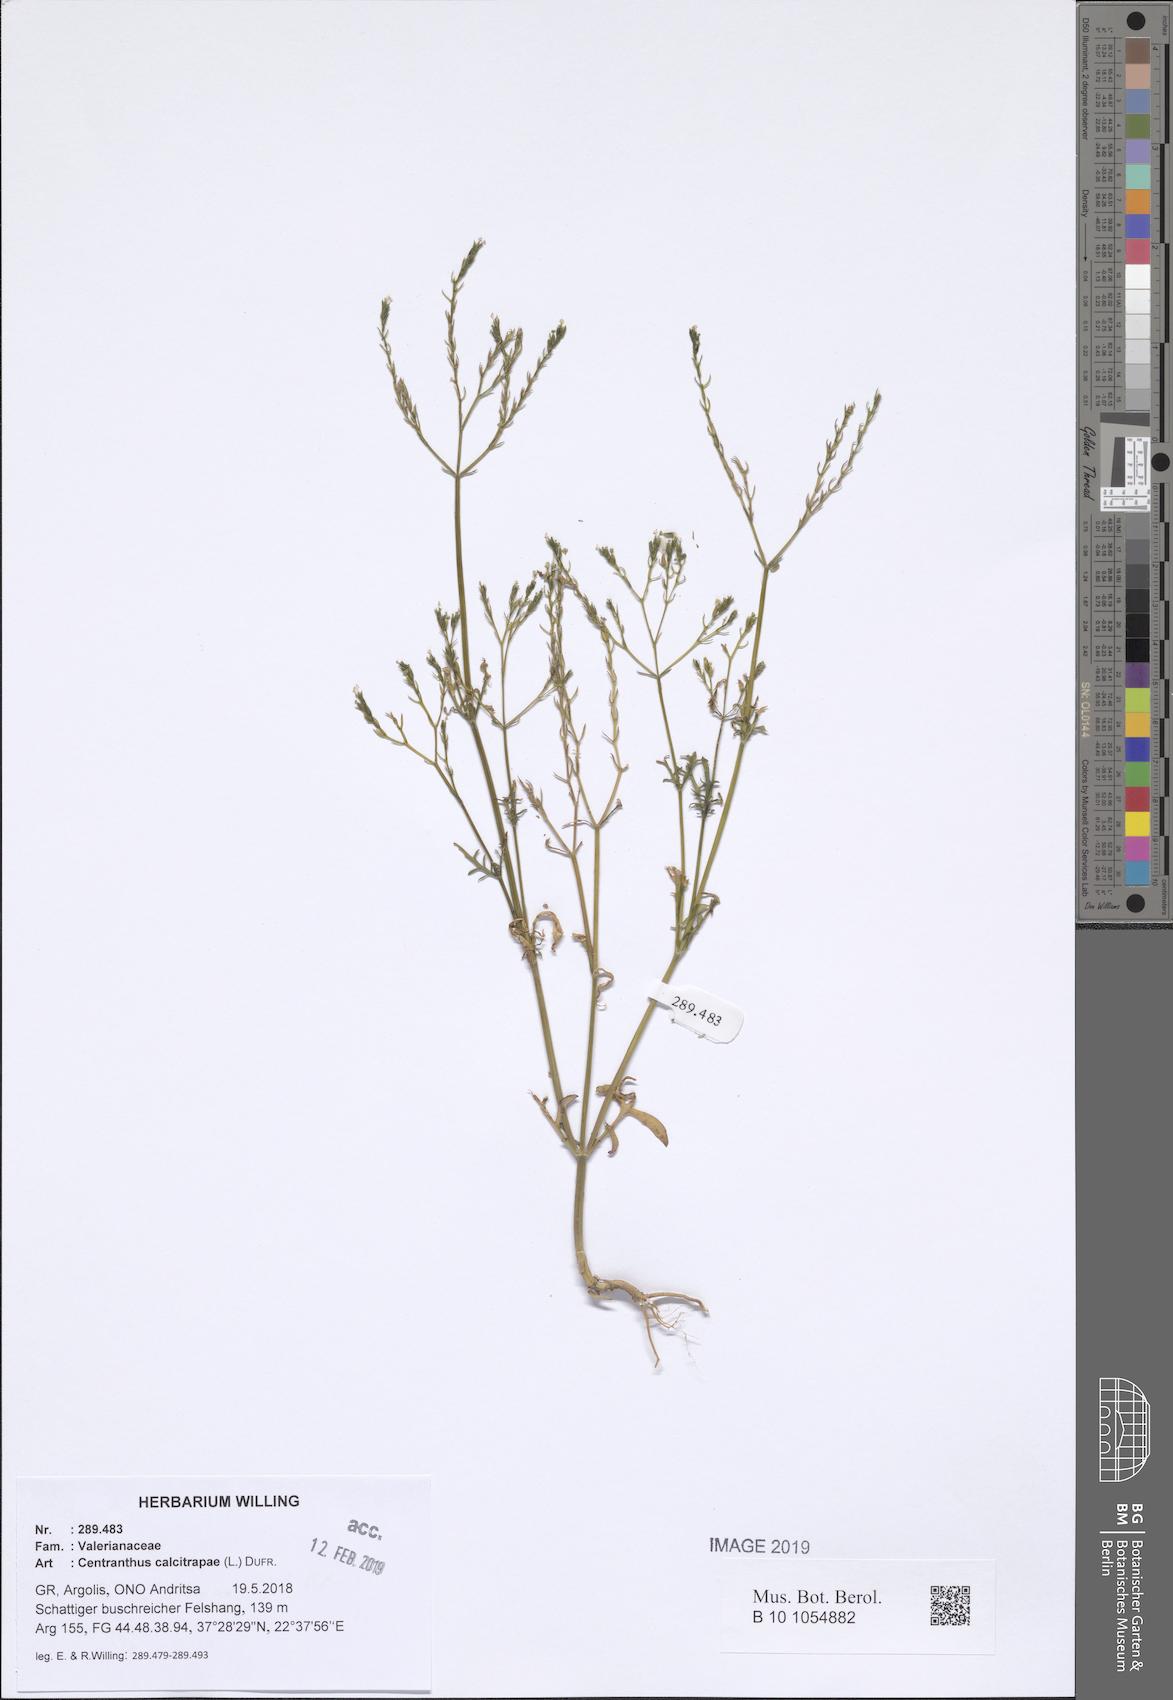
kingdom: Plantae
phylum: Tracheophyta
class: Magnoliopsida
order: Dipsacales
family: Caprifoliaceae
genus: Centranthus
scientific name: Centranthus calcitrapae
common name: Annual valerian
